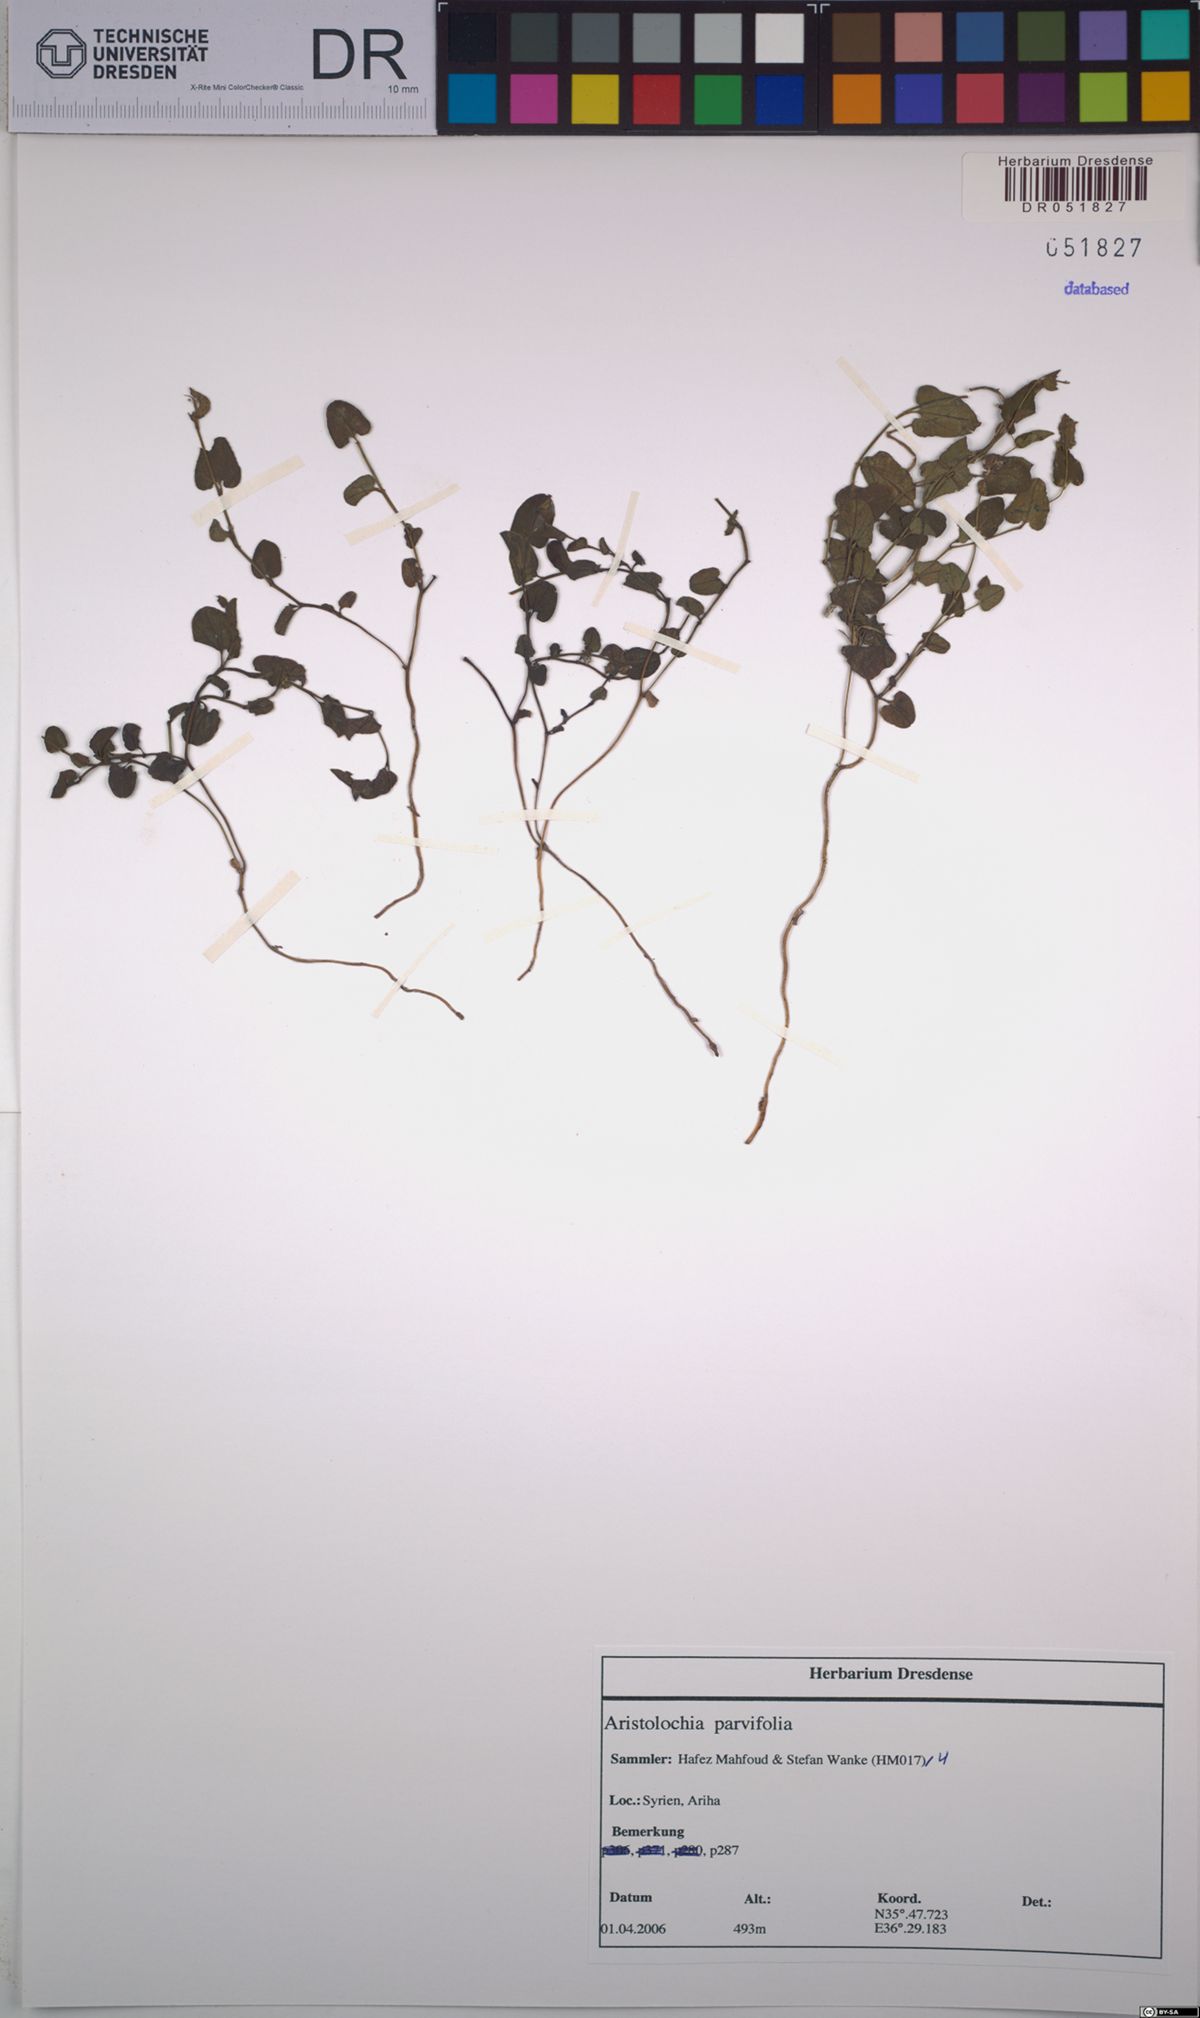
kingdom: Plantae
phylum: Tracheophyta
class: Magnoliopsida
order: Piperales
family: Aristolochiaceae
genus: Aristolochia
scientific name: Aristolochia parvifolia
